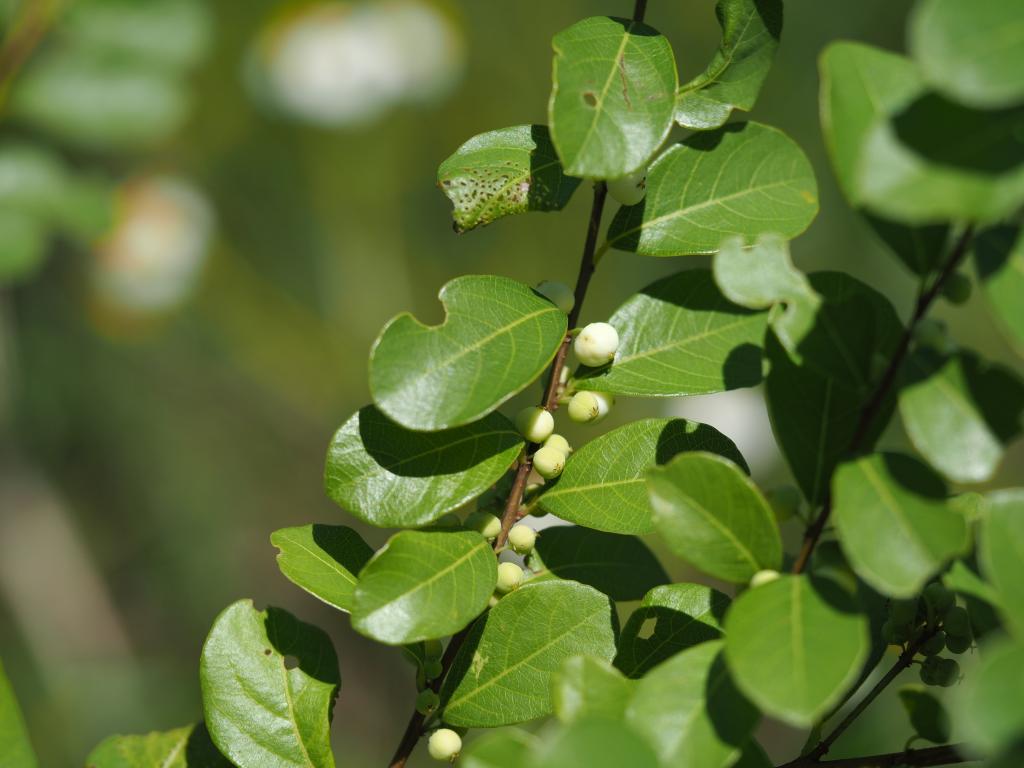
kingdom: Plantae
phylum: Tracheophyta
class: Magnoliopsida
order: Malpighiales
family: Phyllanthaceae
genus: Flueggea
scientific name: Flueggea suffruticosa
